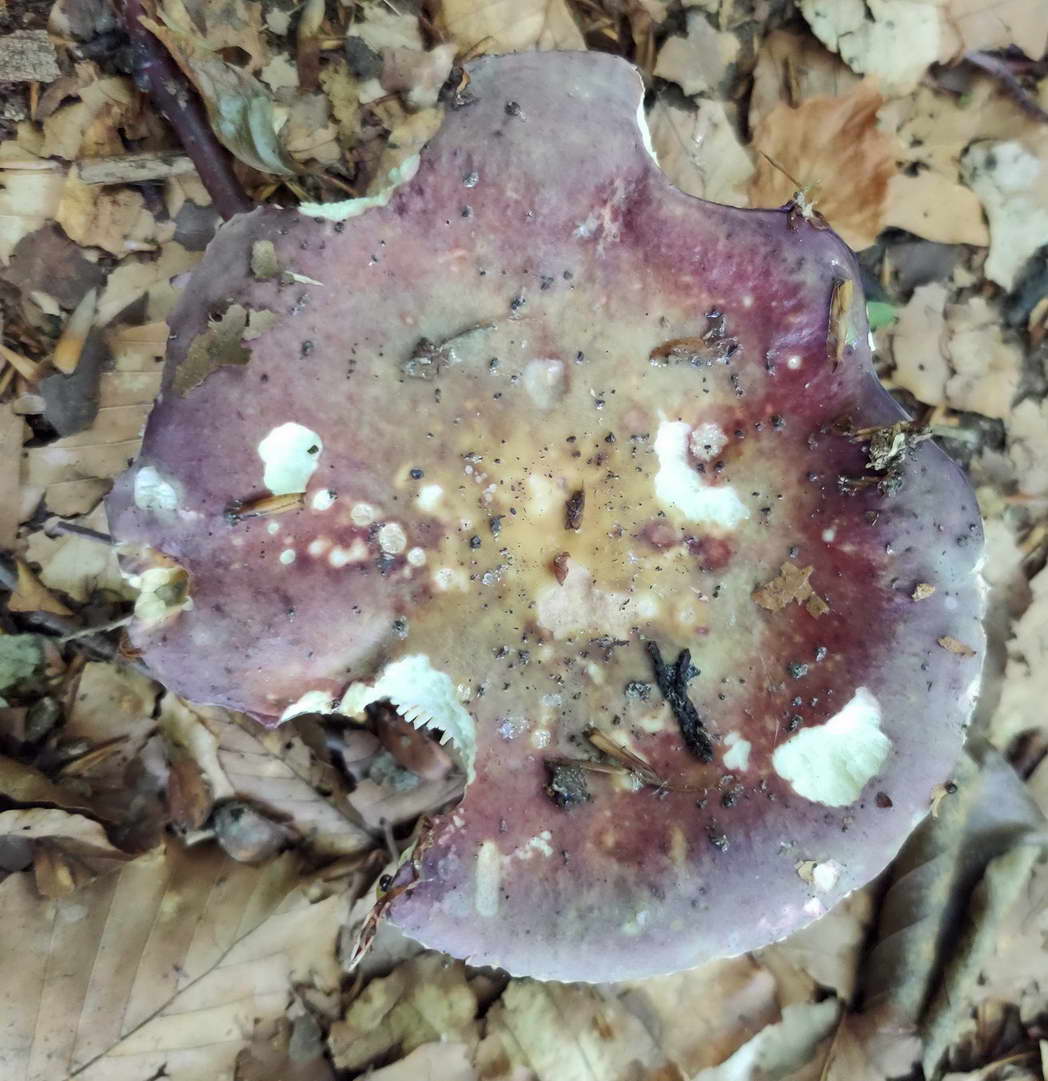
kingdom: Fungi
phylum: Basidiomycota
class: Agaricomycetes
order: Russulales
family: Russulaceae
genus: Russula
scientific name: Russula romellii
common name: romells skørhat
